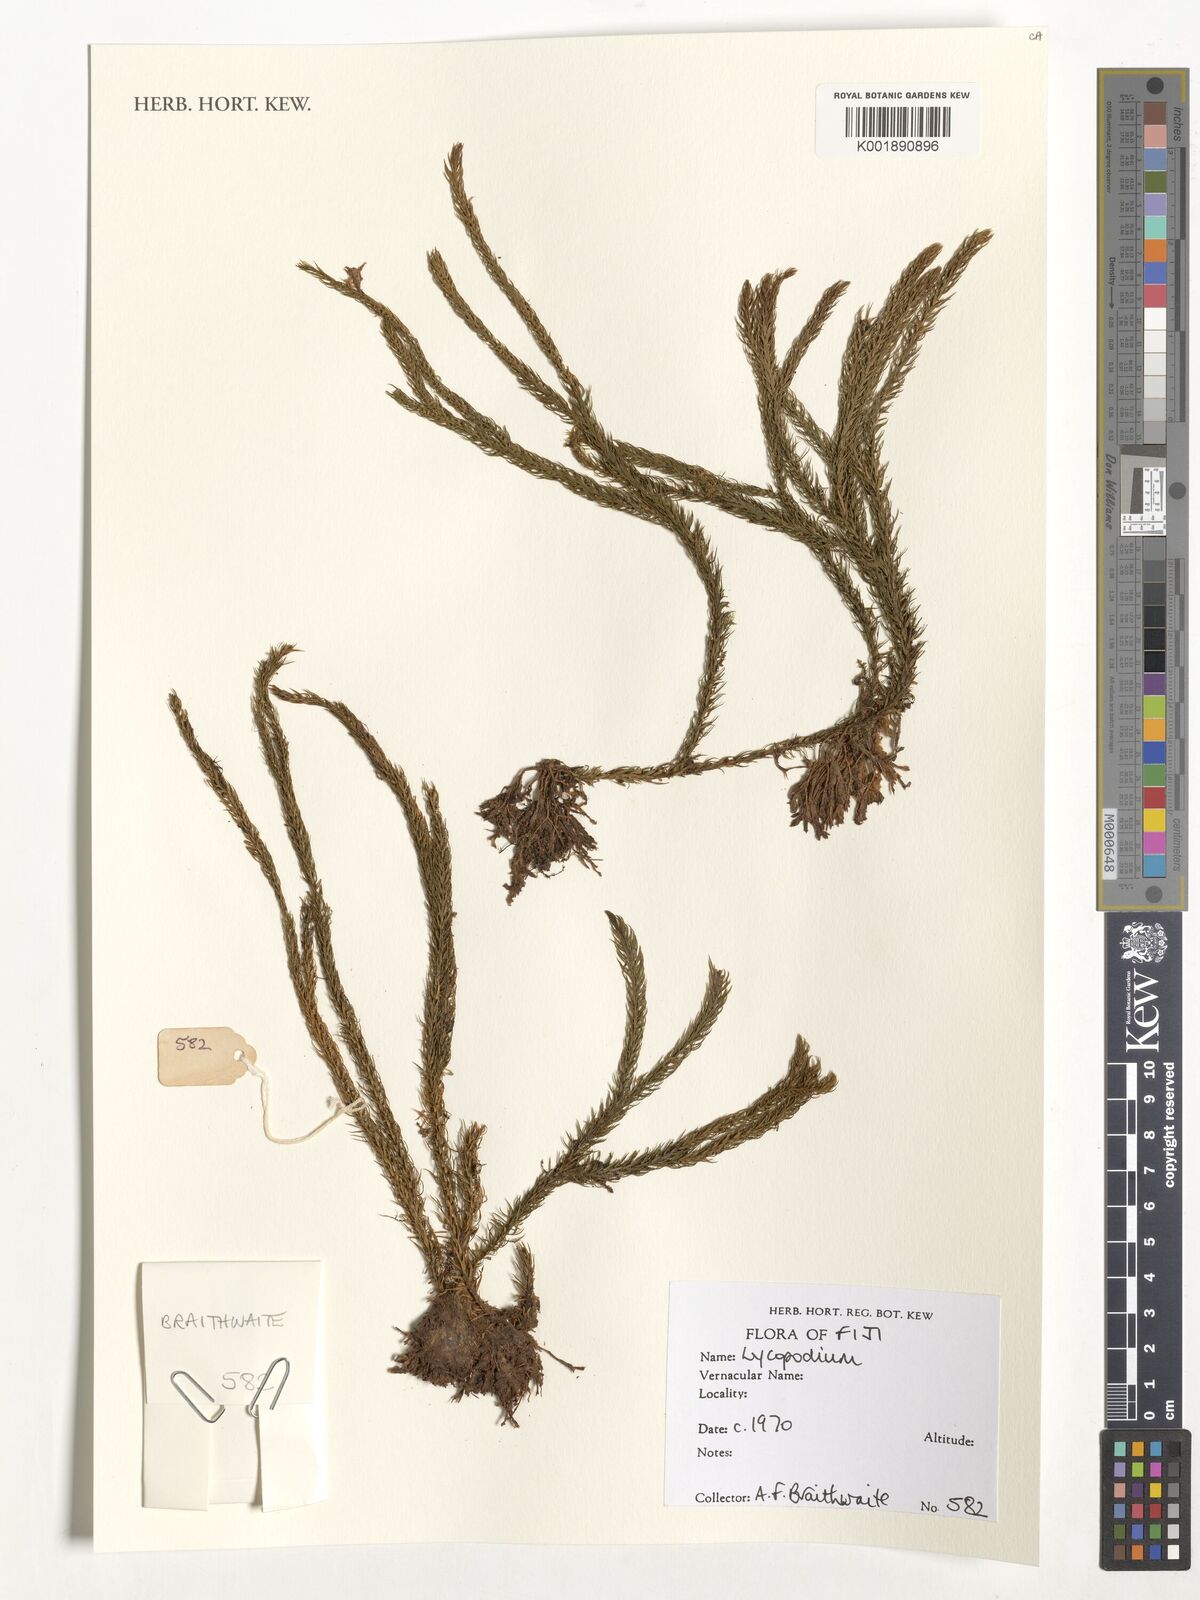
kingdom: Plantae
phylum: Tracheophyta
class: Lycopodiopsida
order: Lycopodiales
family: Lycopodiaceae
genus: Lycopodium
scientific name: Lycopodium
